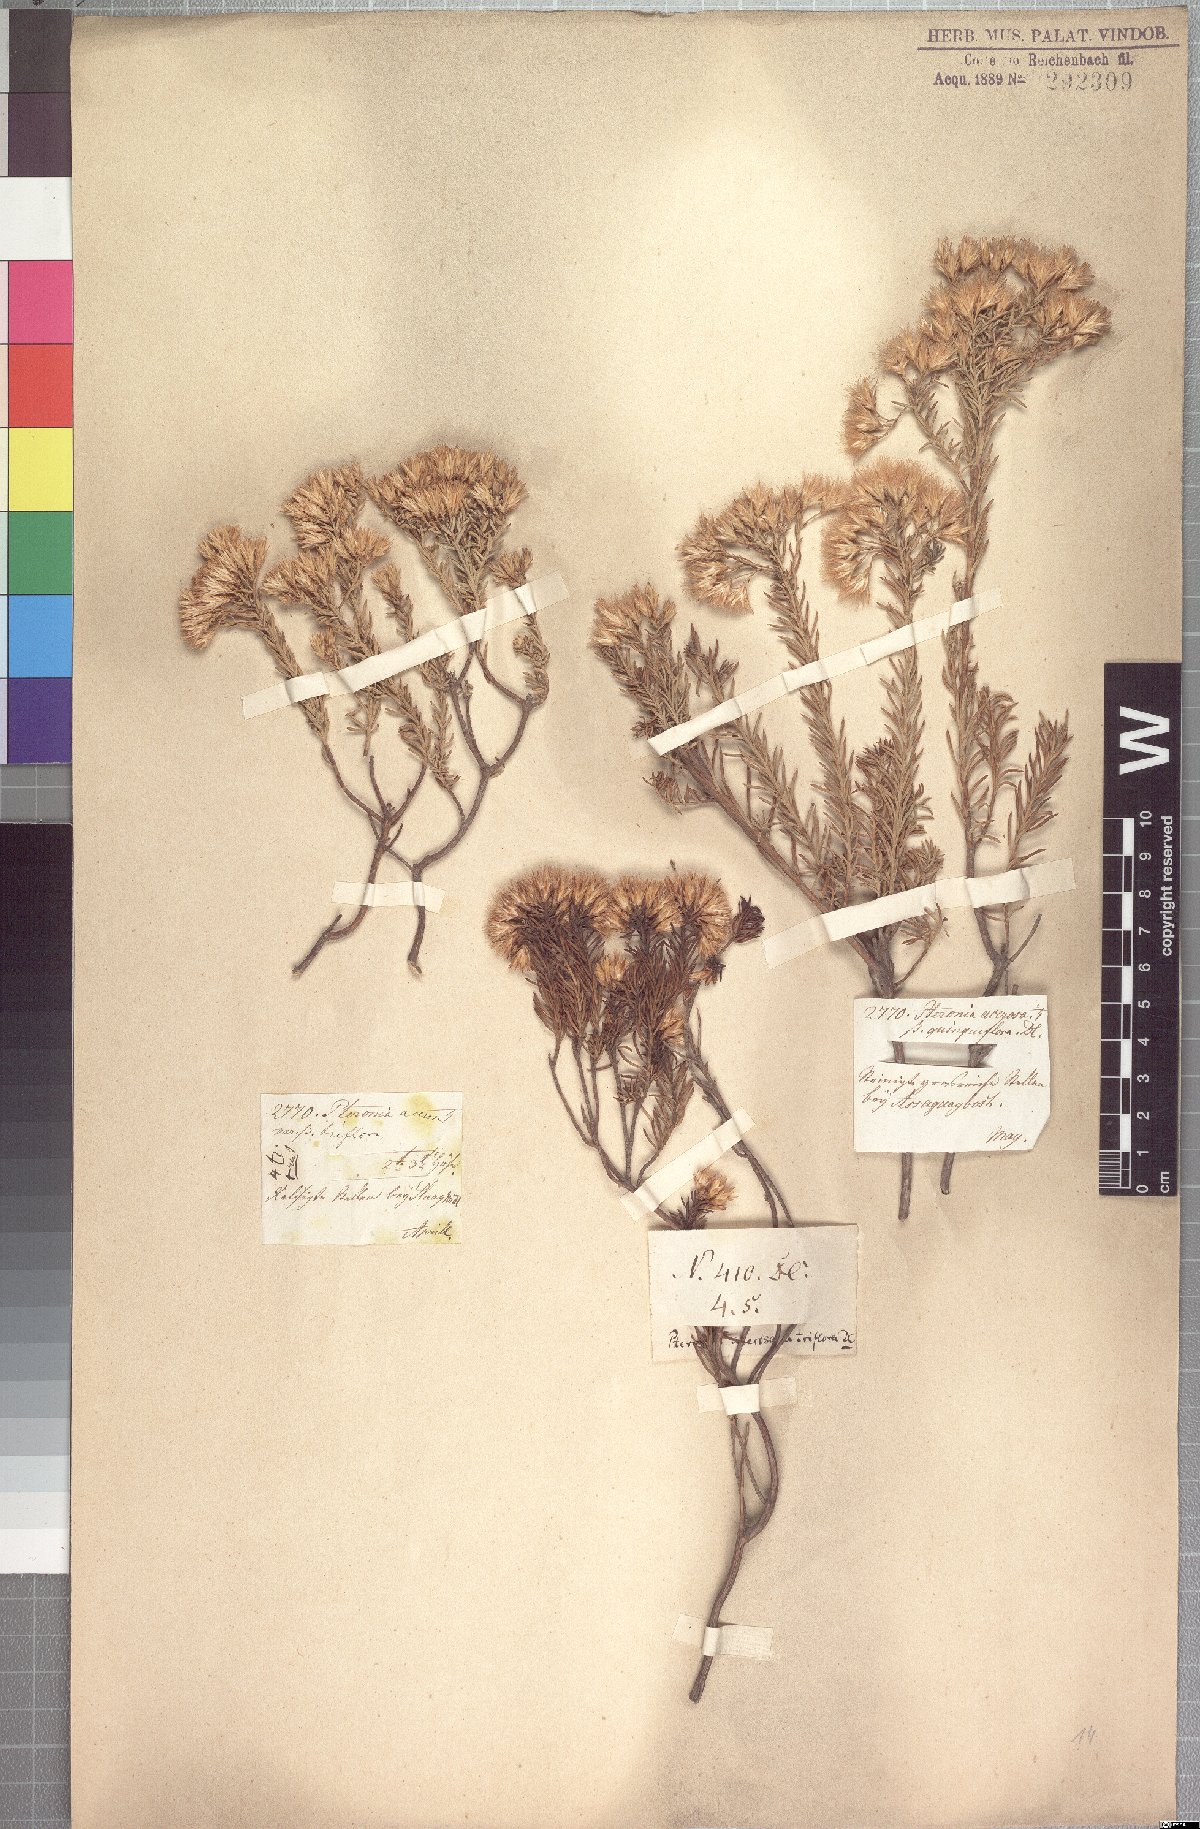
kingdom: Plantae
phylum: Tracheophyta
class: Magnoliopsida
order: Asterales
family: Asteraceae
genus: Pteronia
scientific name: Pteronia teretifolia
